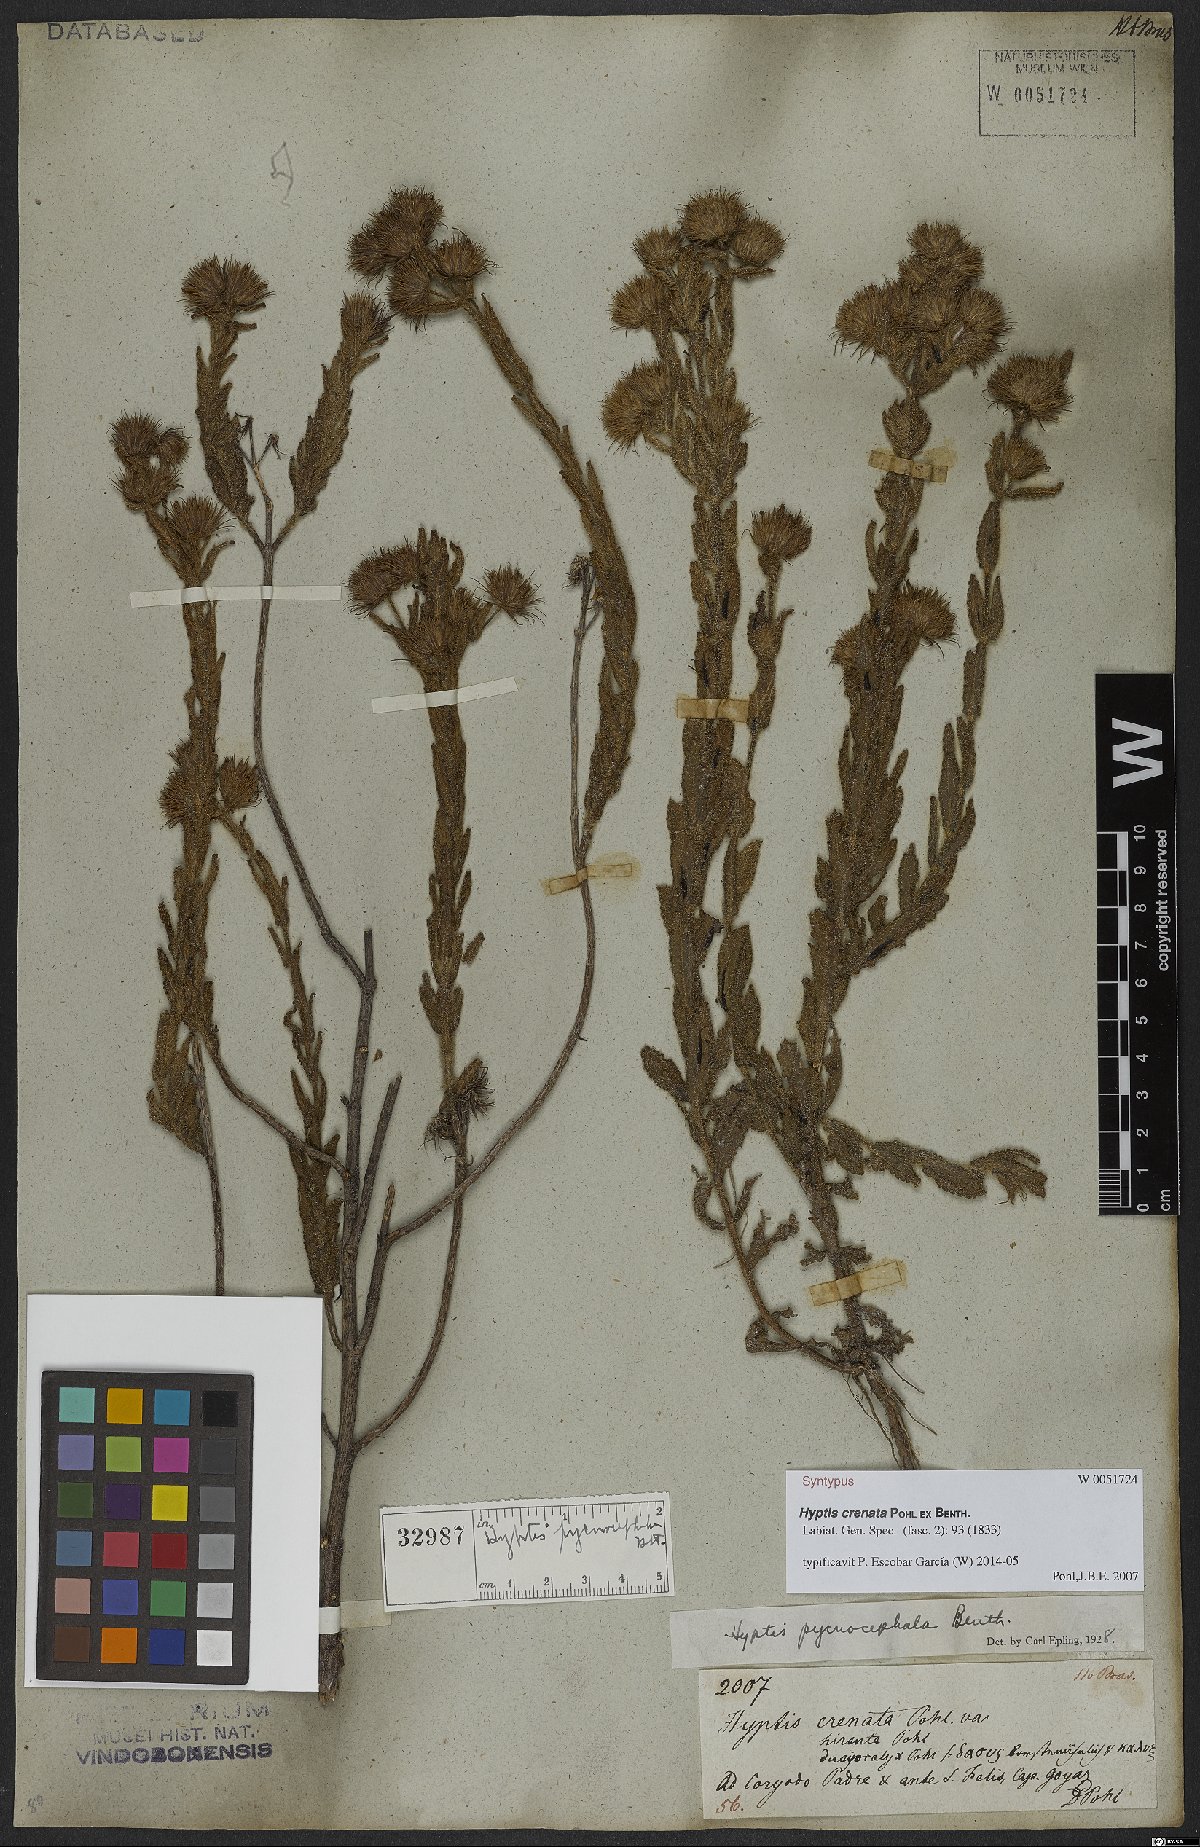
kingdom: Plantae
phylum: Tracheophyta
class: Magnoliopsida
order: Lamiales
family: Lamiaceae
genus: Hyptis
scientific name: Hyptis pycnocephala
